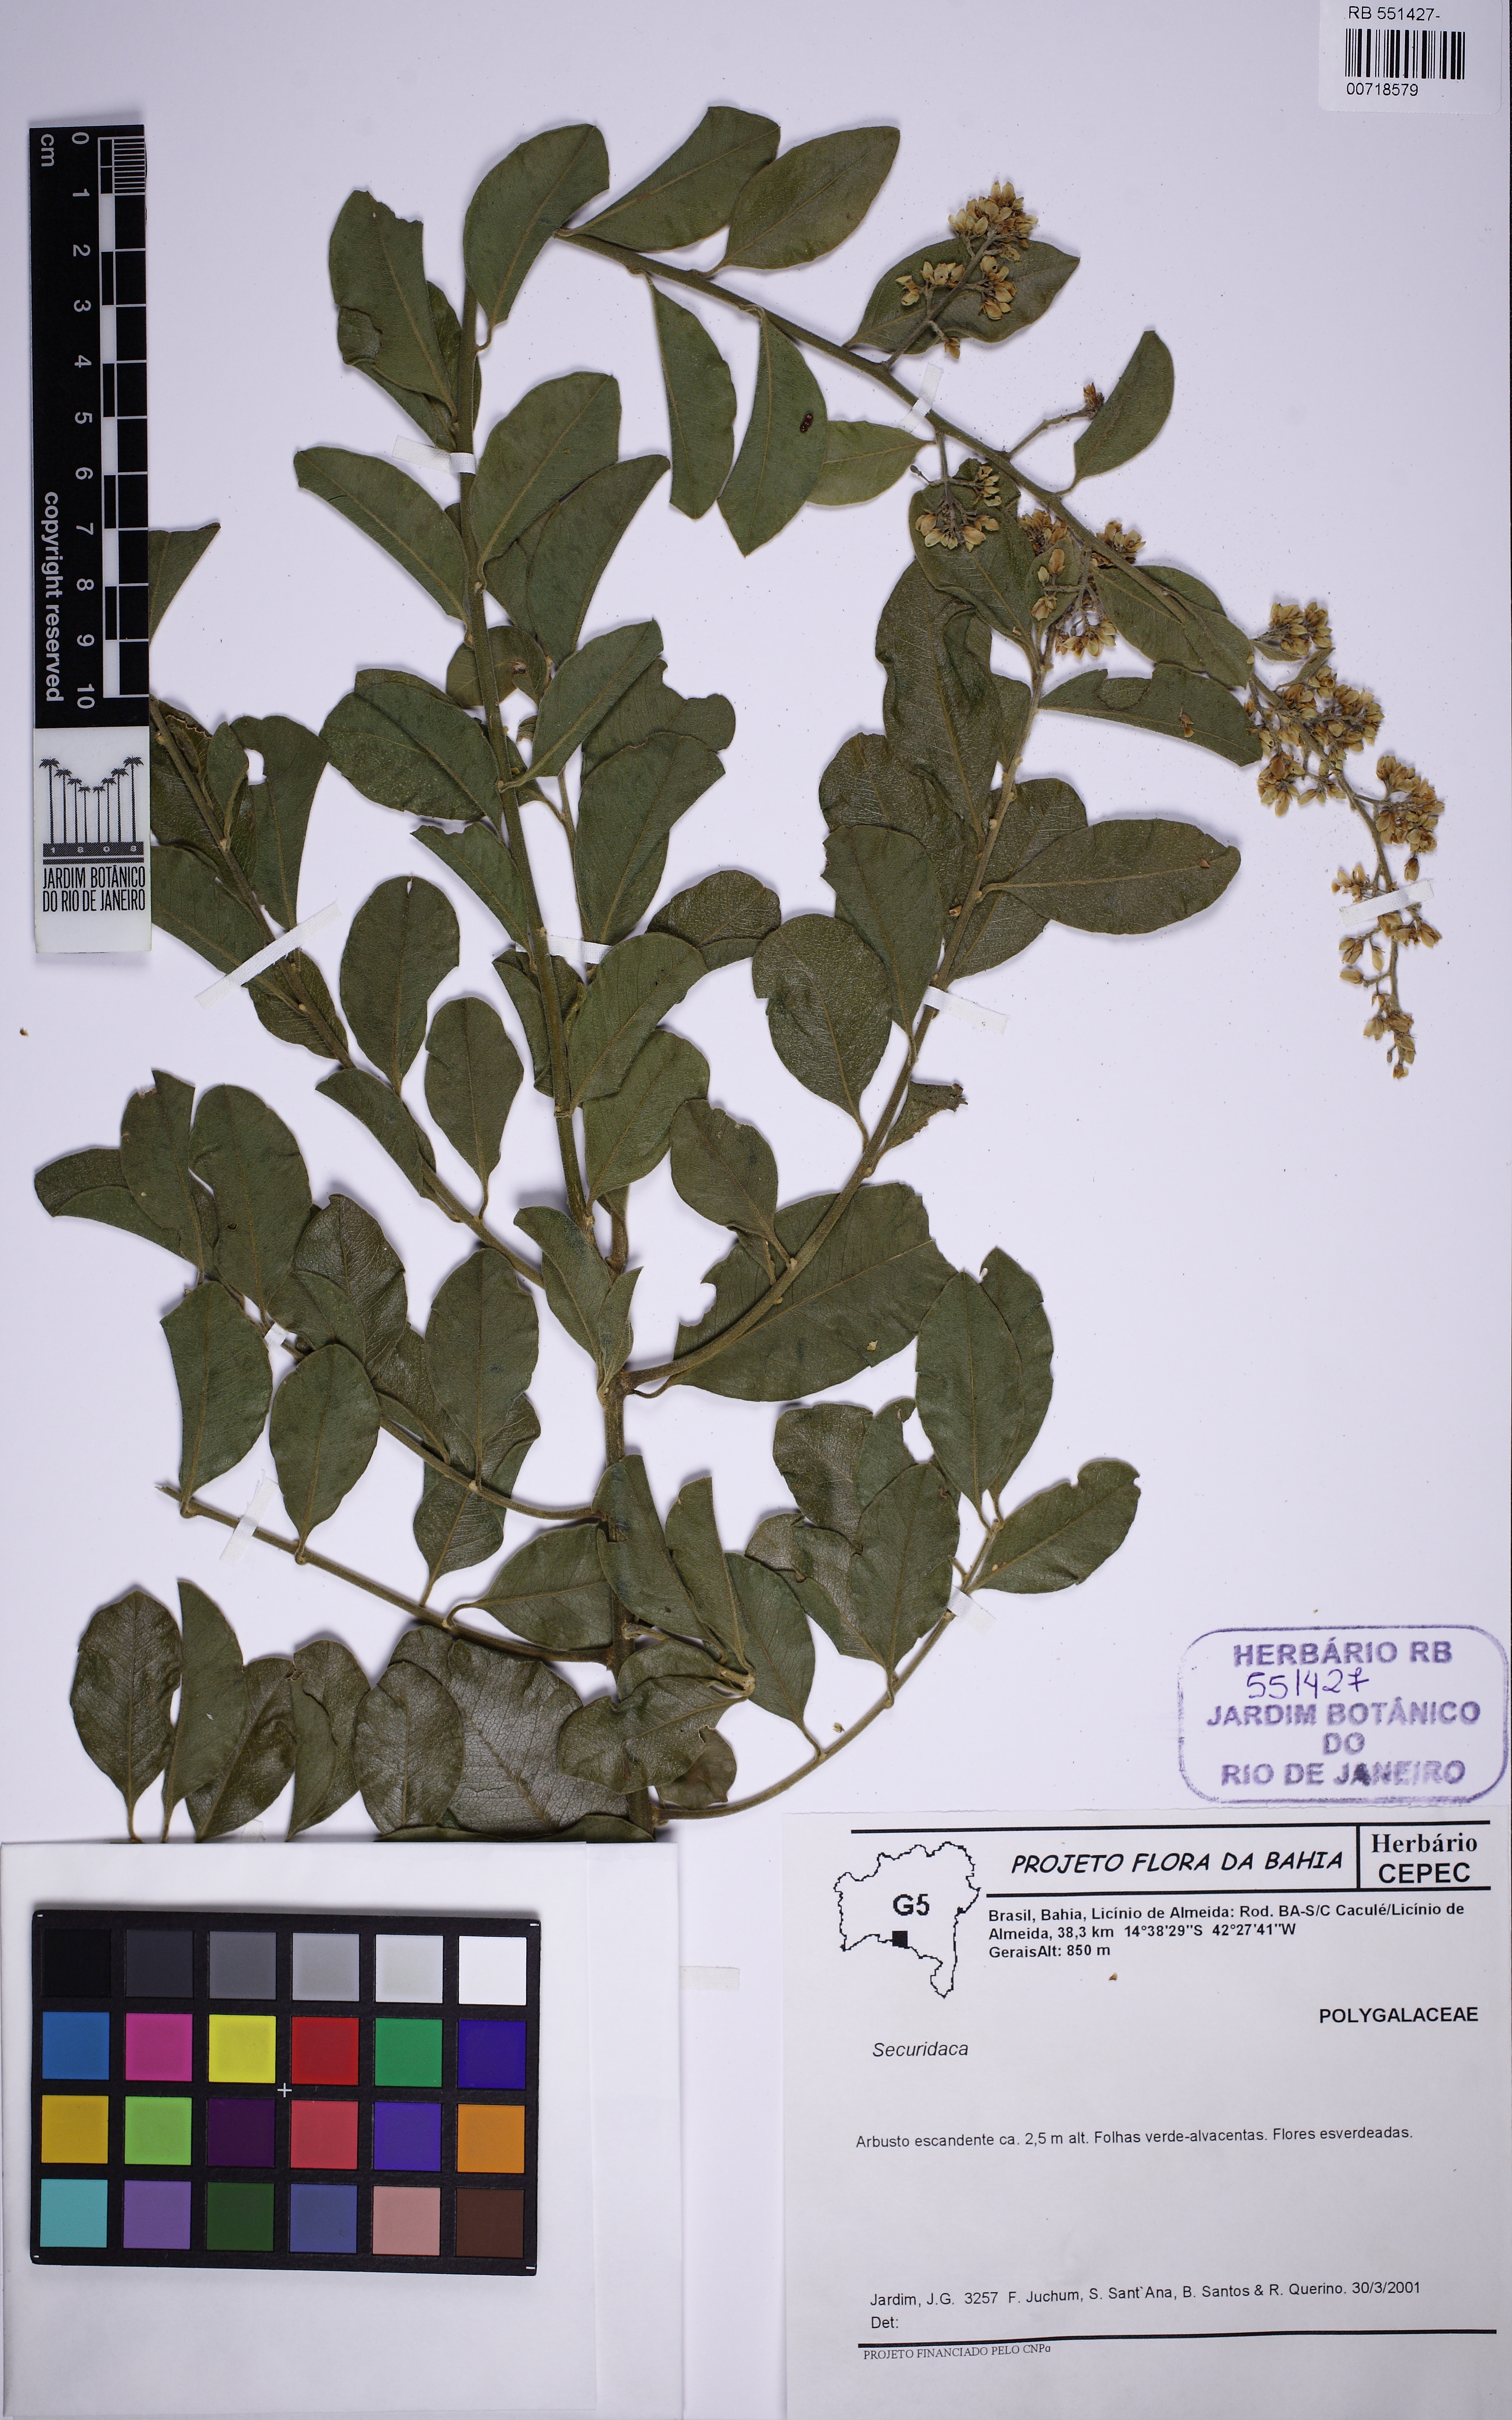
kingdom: Plantae
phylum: Tracheophyta
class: Magnoliopsida
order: Fabales
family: Polygalaceae
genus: Securidaca
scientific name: Securidaca
